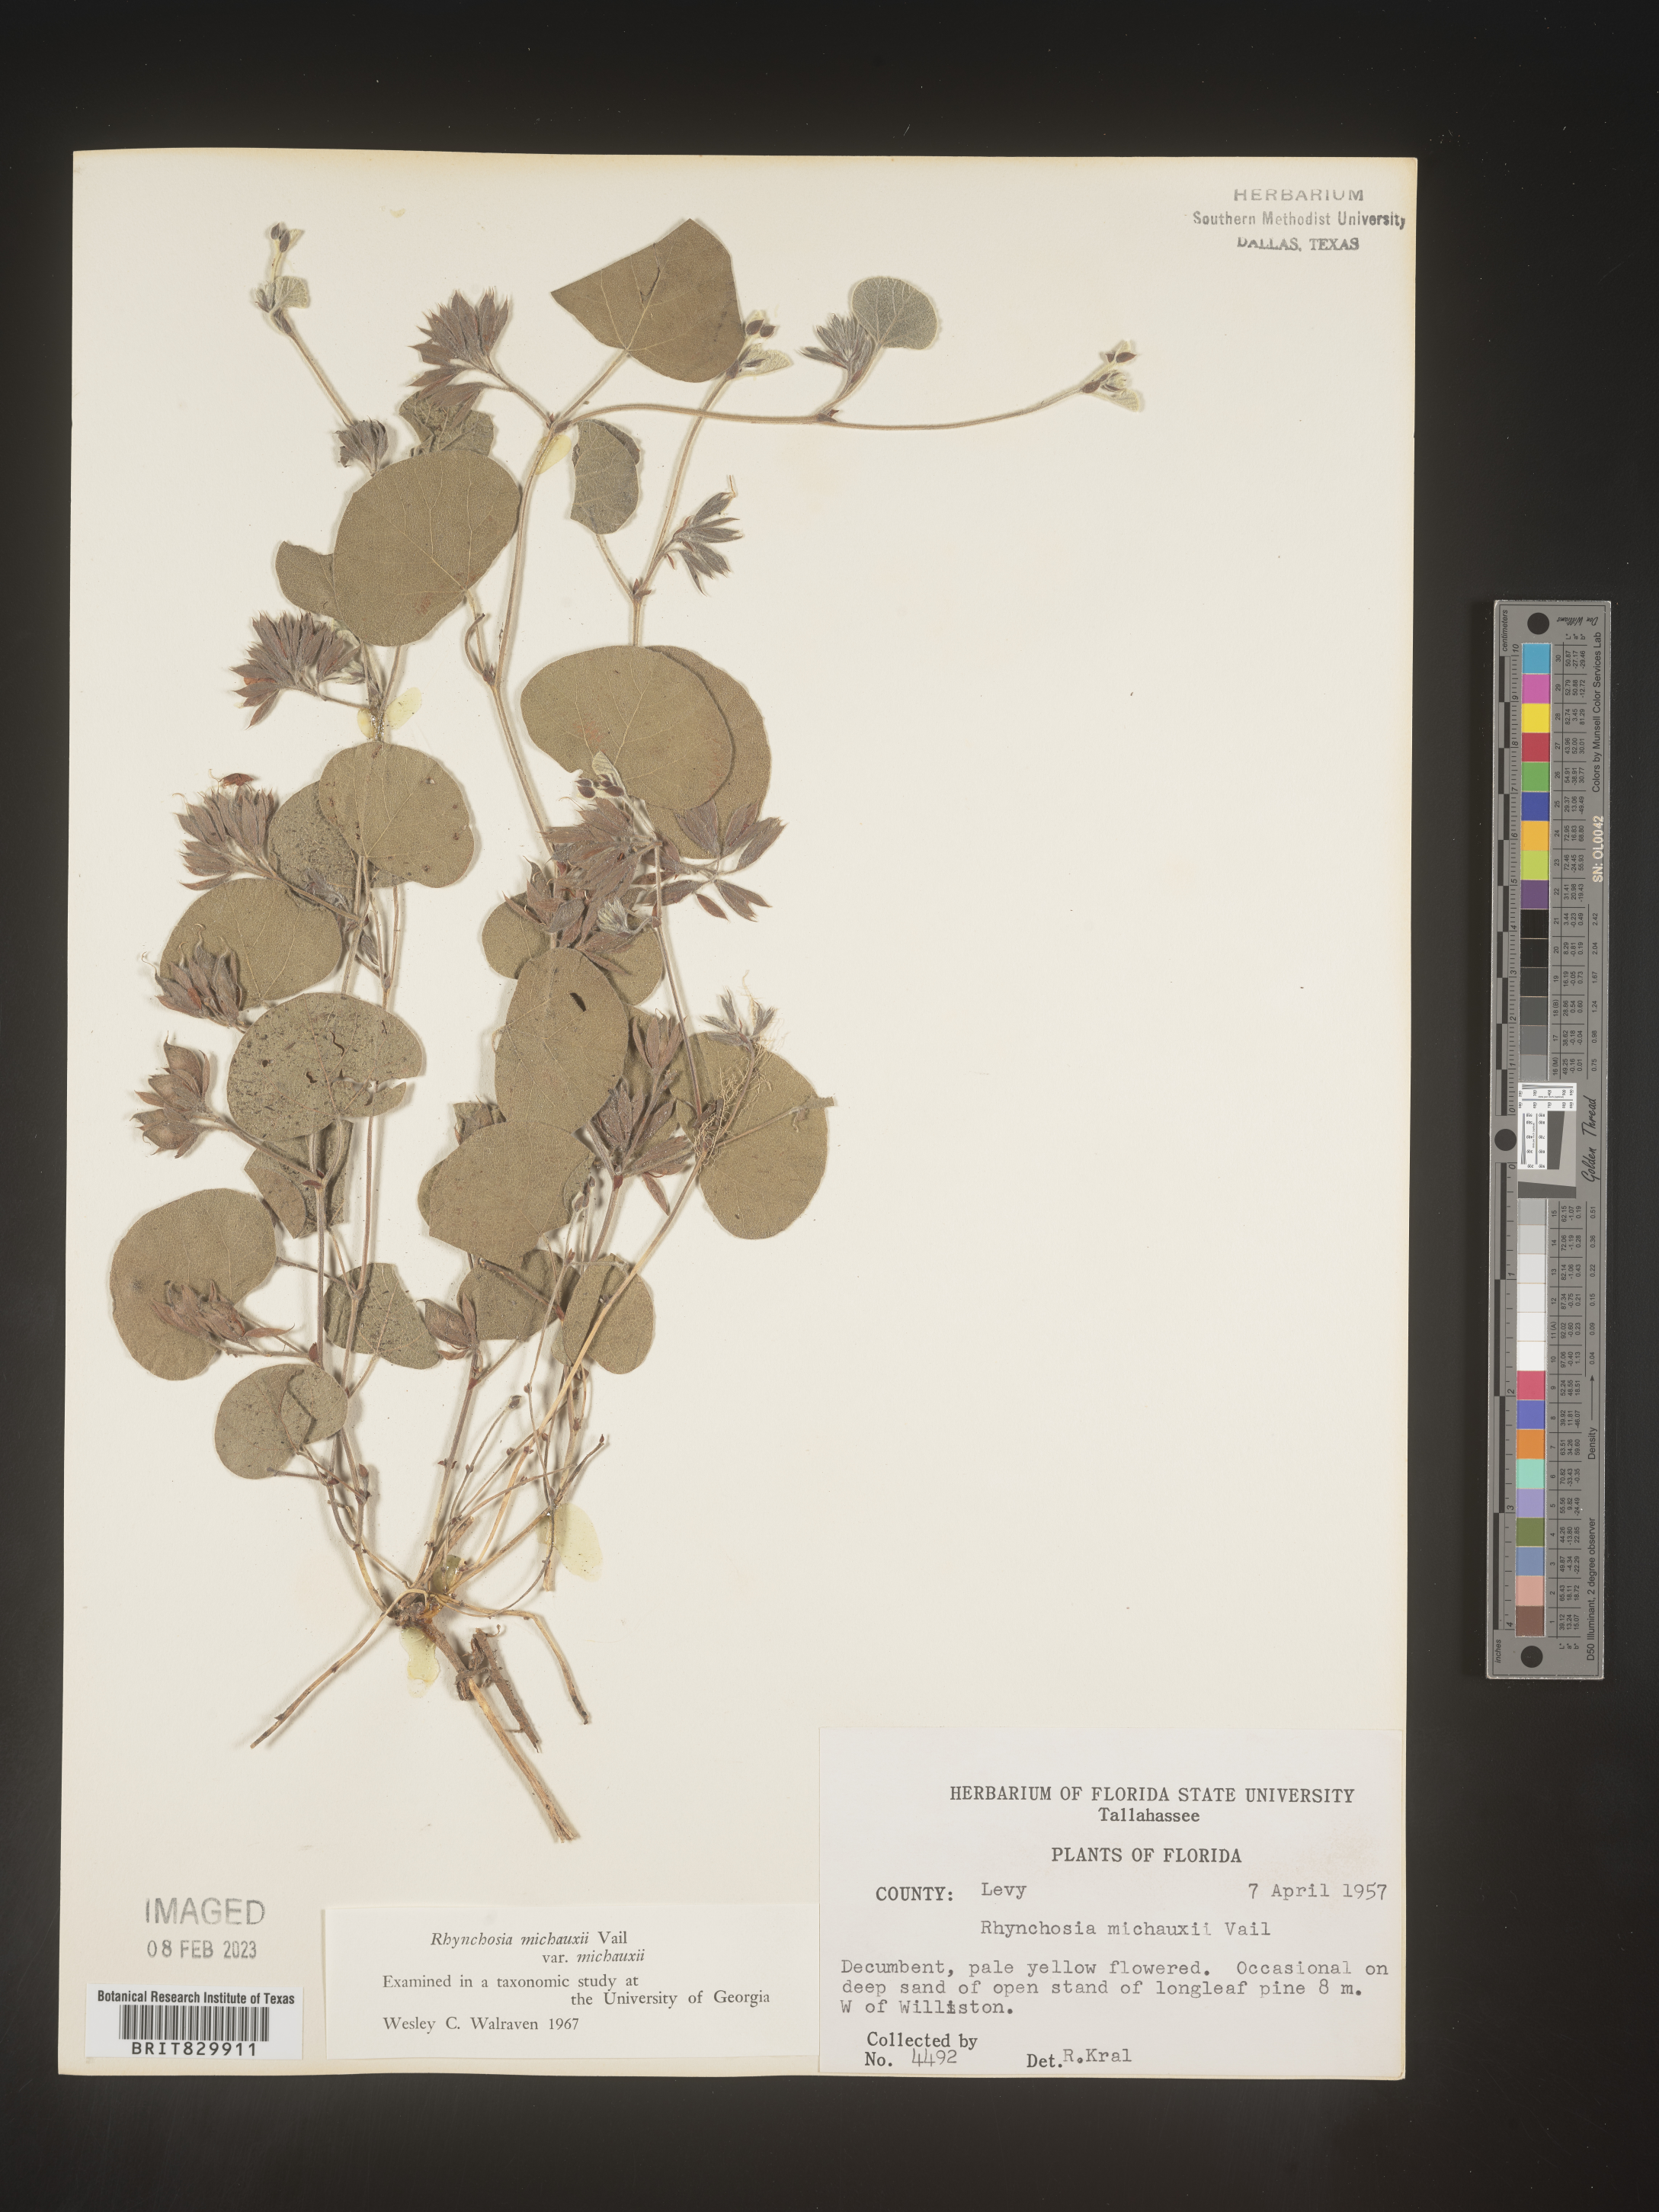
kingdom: Plantae
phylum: Tracheophyta
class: Magnoliopsida
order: Fabales
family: Fabaceae
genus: Rhynchosia
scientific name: Rhynchosia
